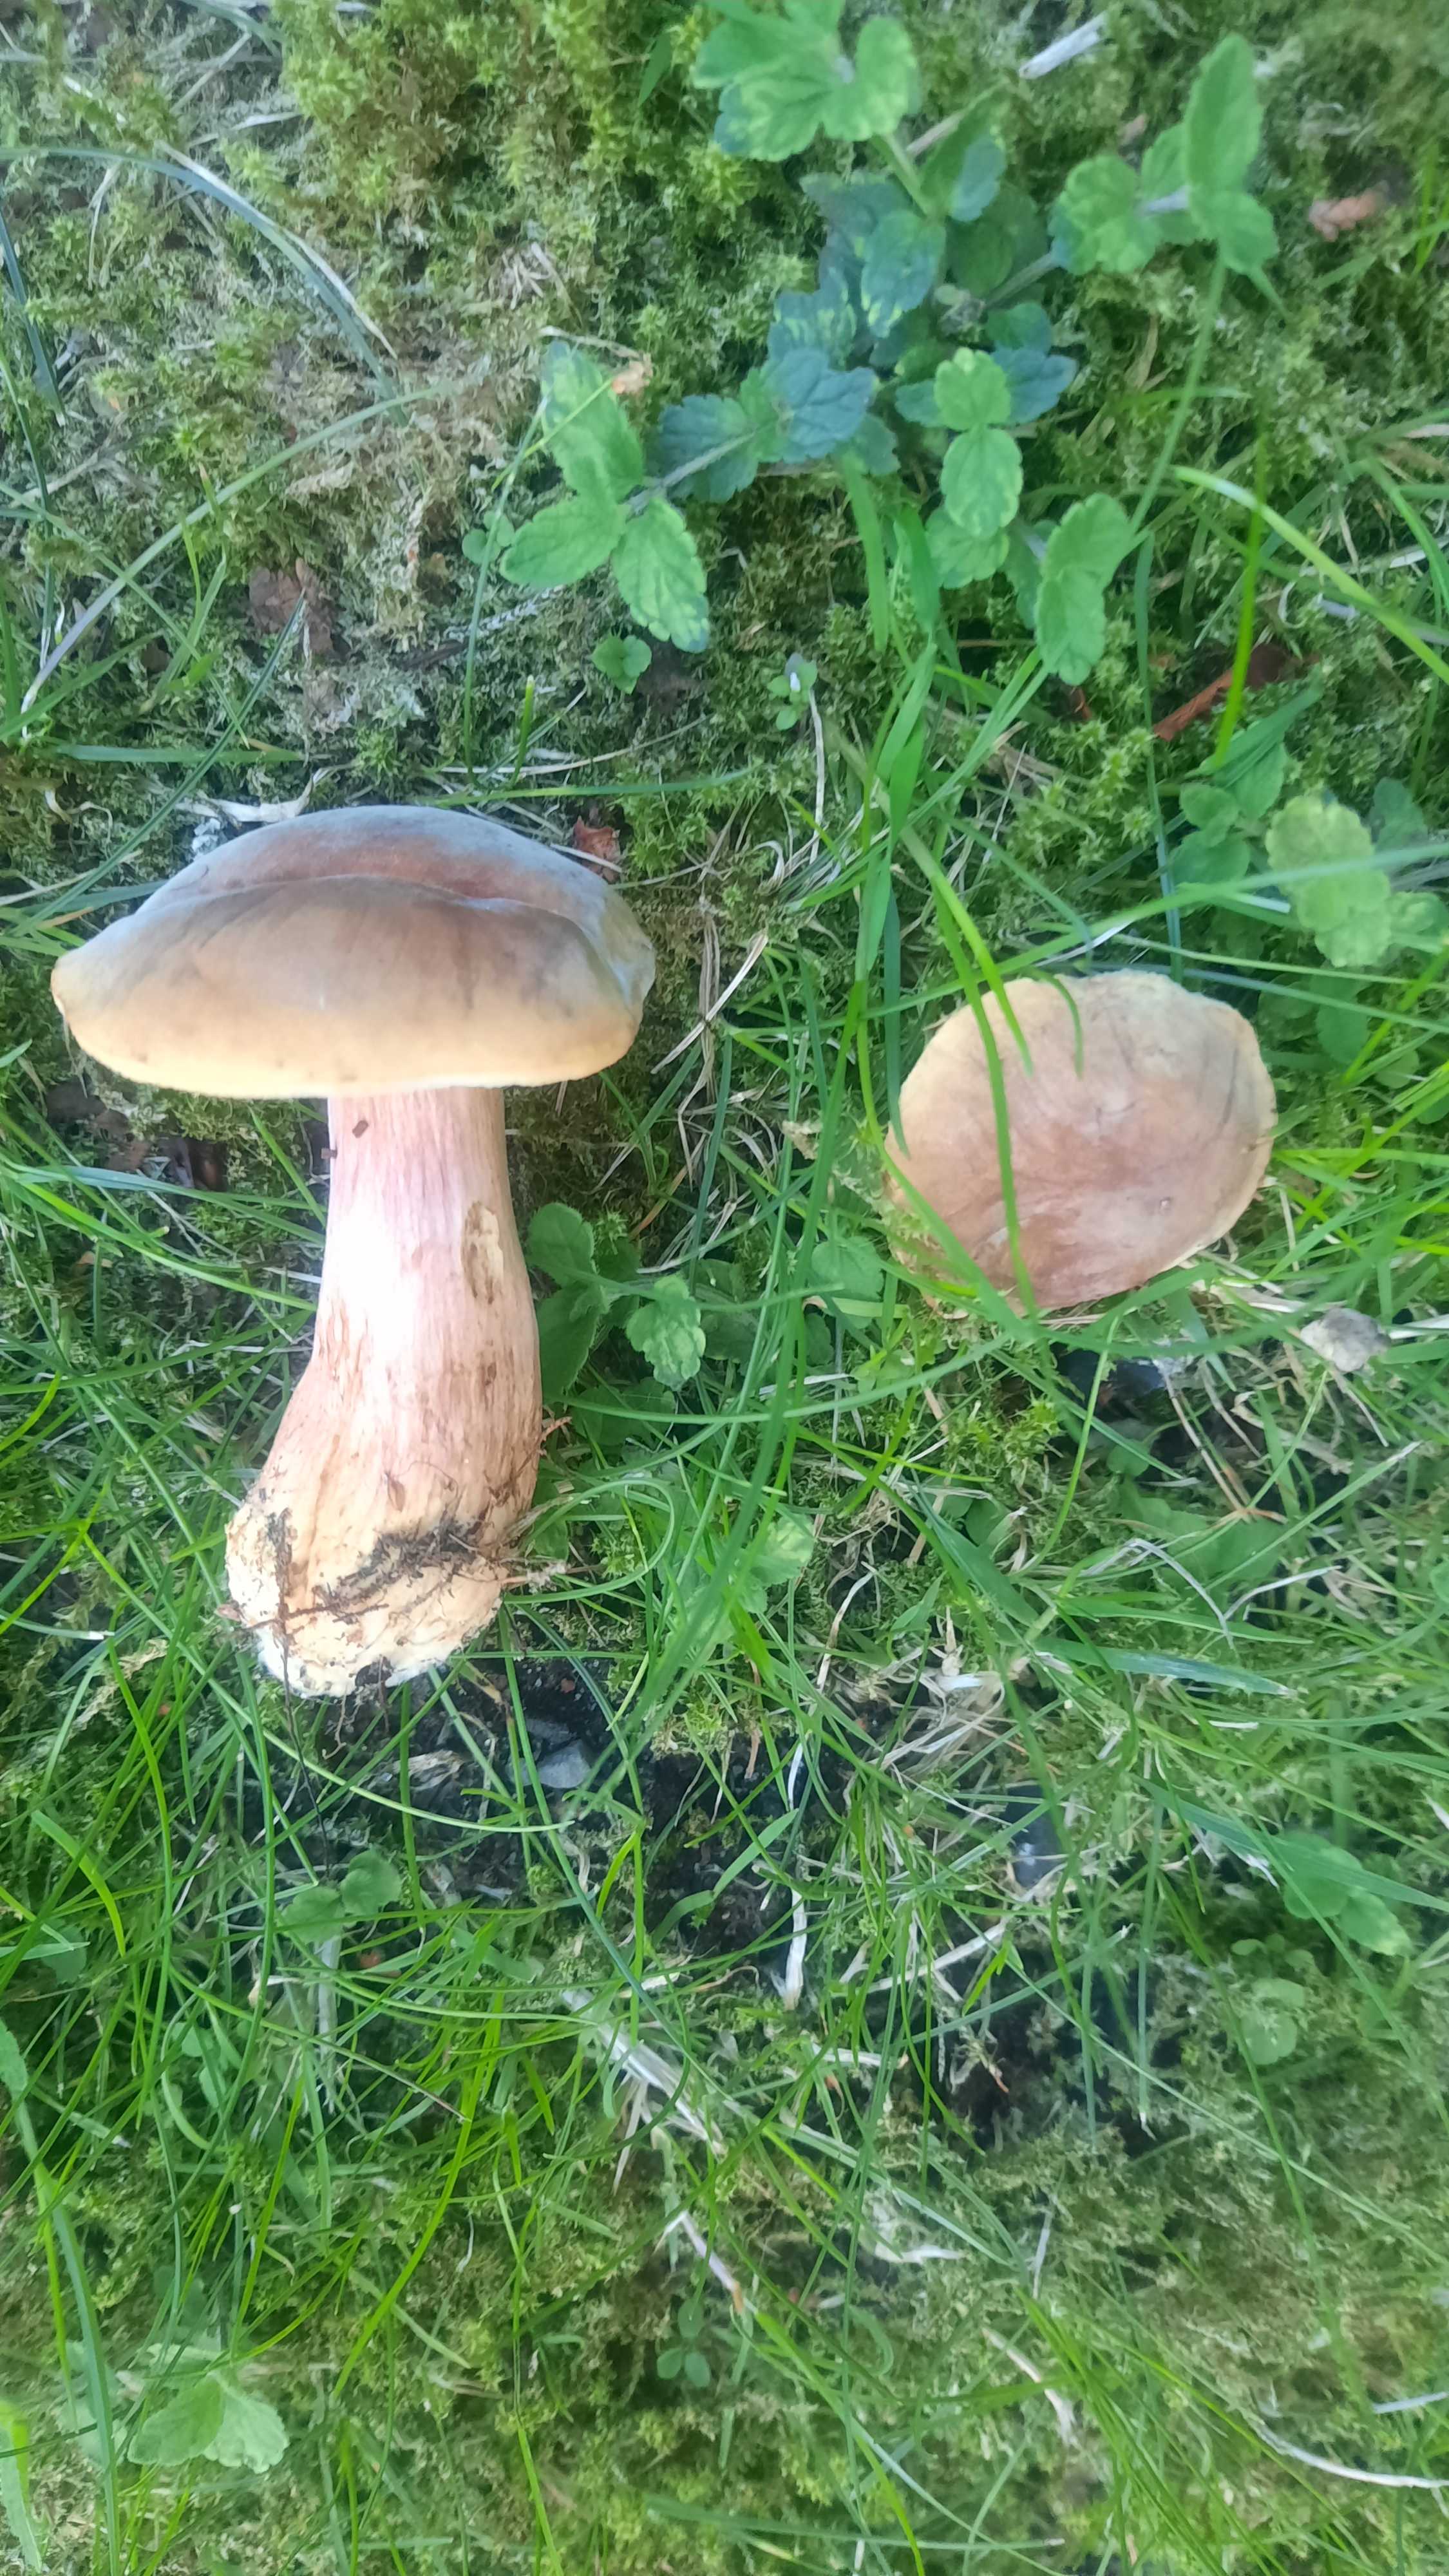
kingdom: Fungi
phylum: Basidiomycota
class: Agaricomycetes
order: Boletales
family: Boletaceae
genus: Hortiboletus
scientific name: Hortiboletus bubalinus
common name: aurora-rørhat
